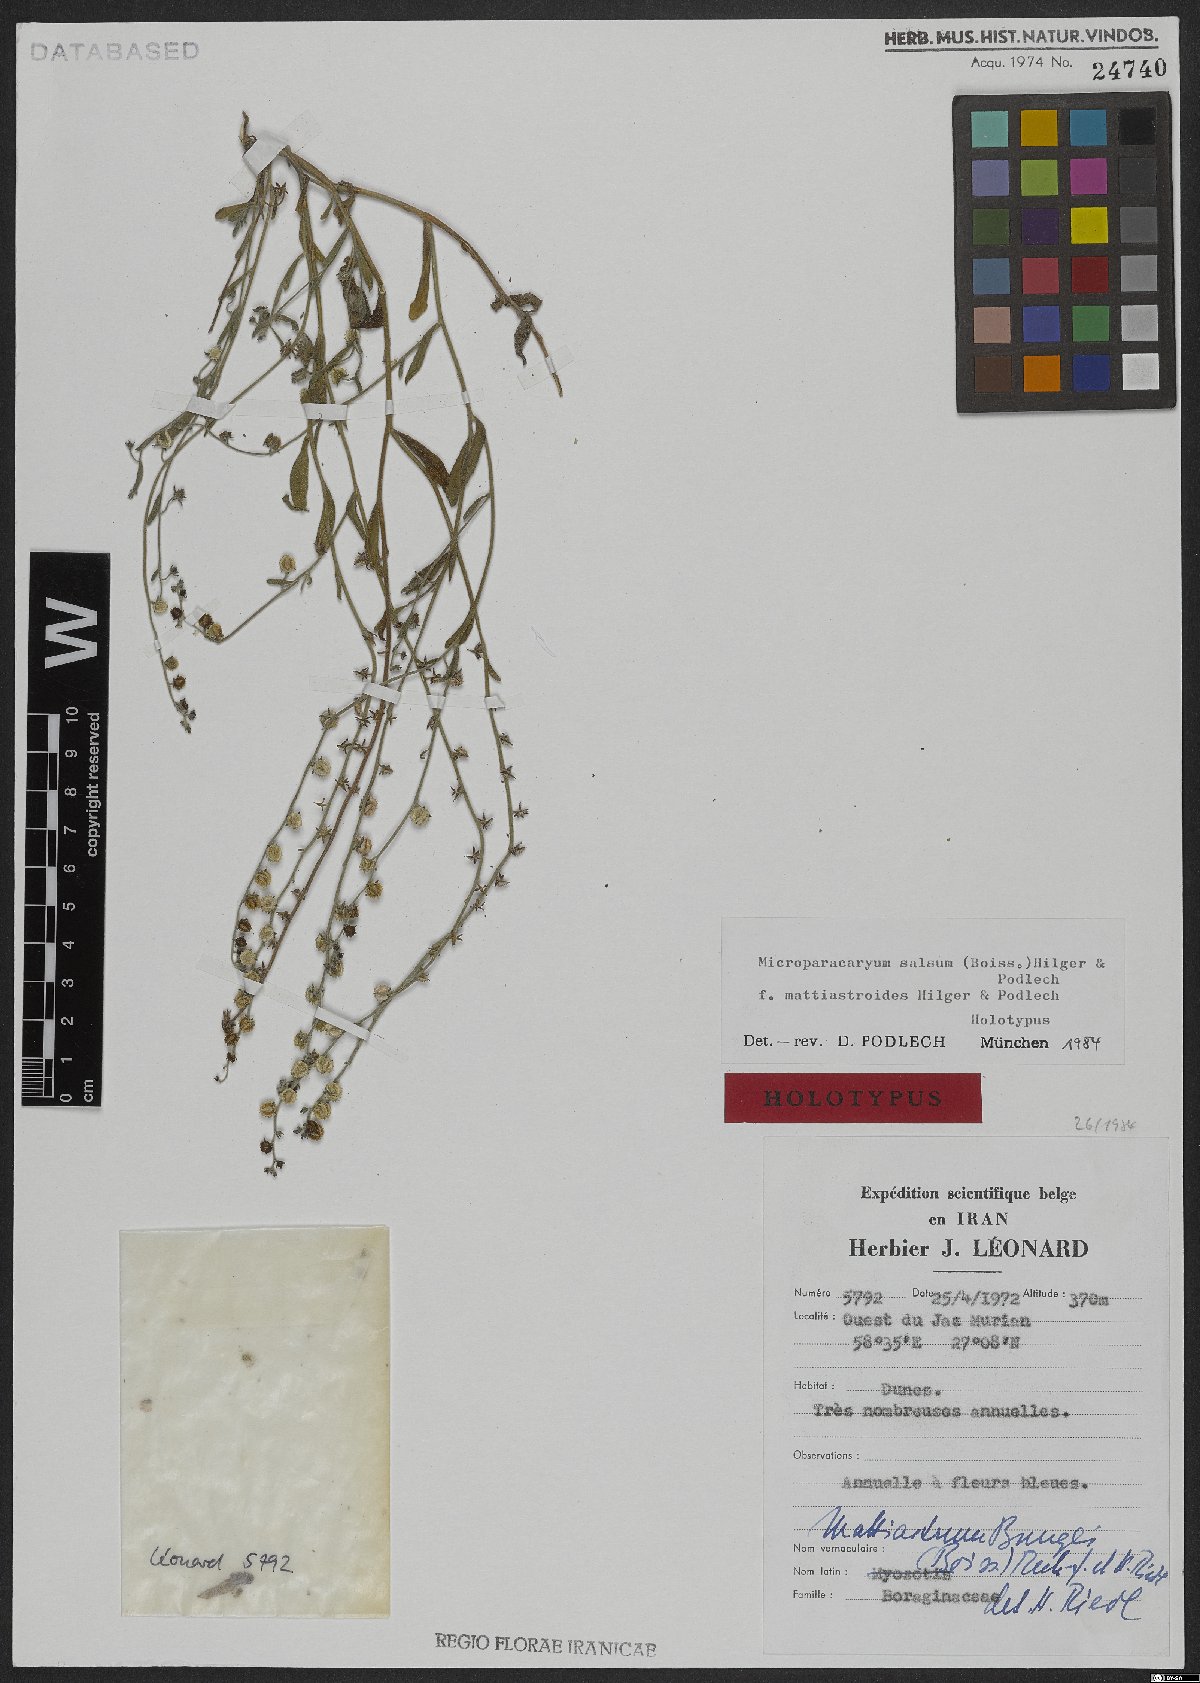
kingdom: Plantae
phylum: Tracheophyta
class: Magnoliopsida
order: Boraginales
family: Boraginaceae
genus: Microparacaryum
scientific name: Microparacaryum salsum
